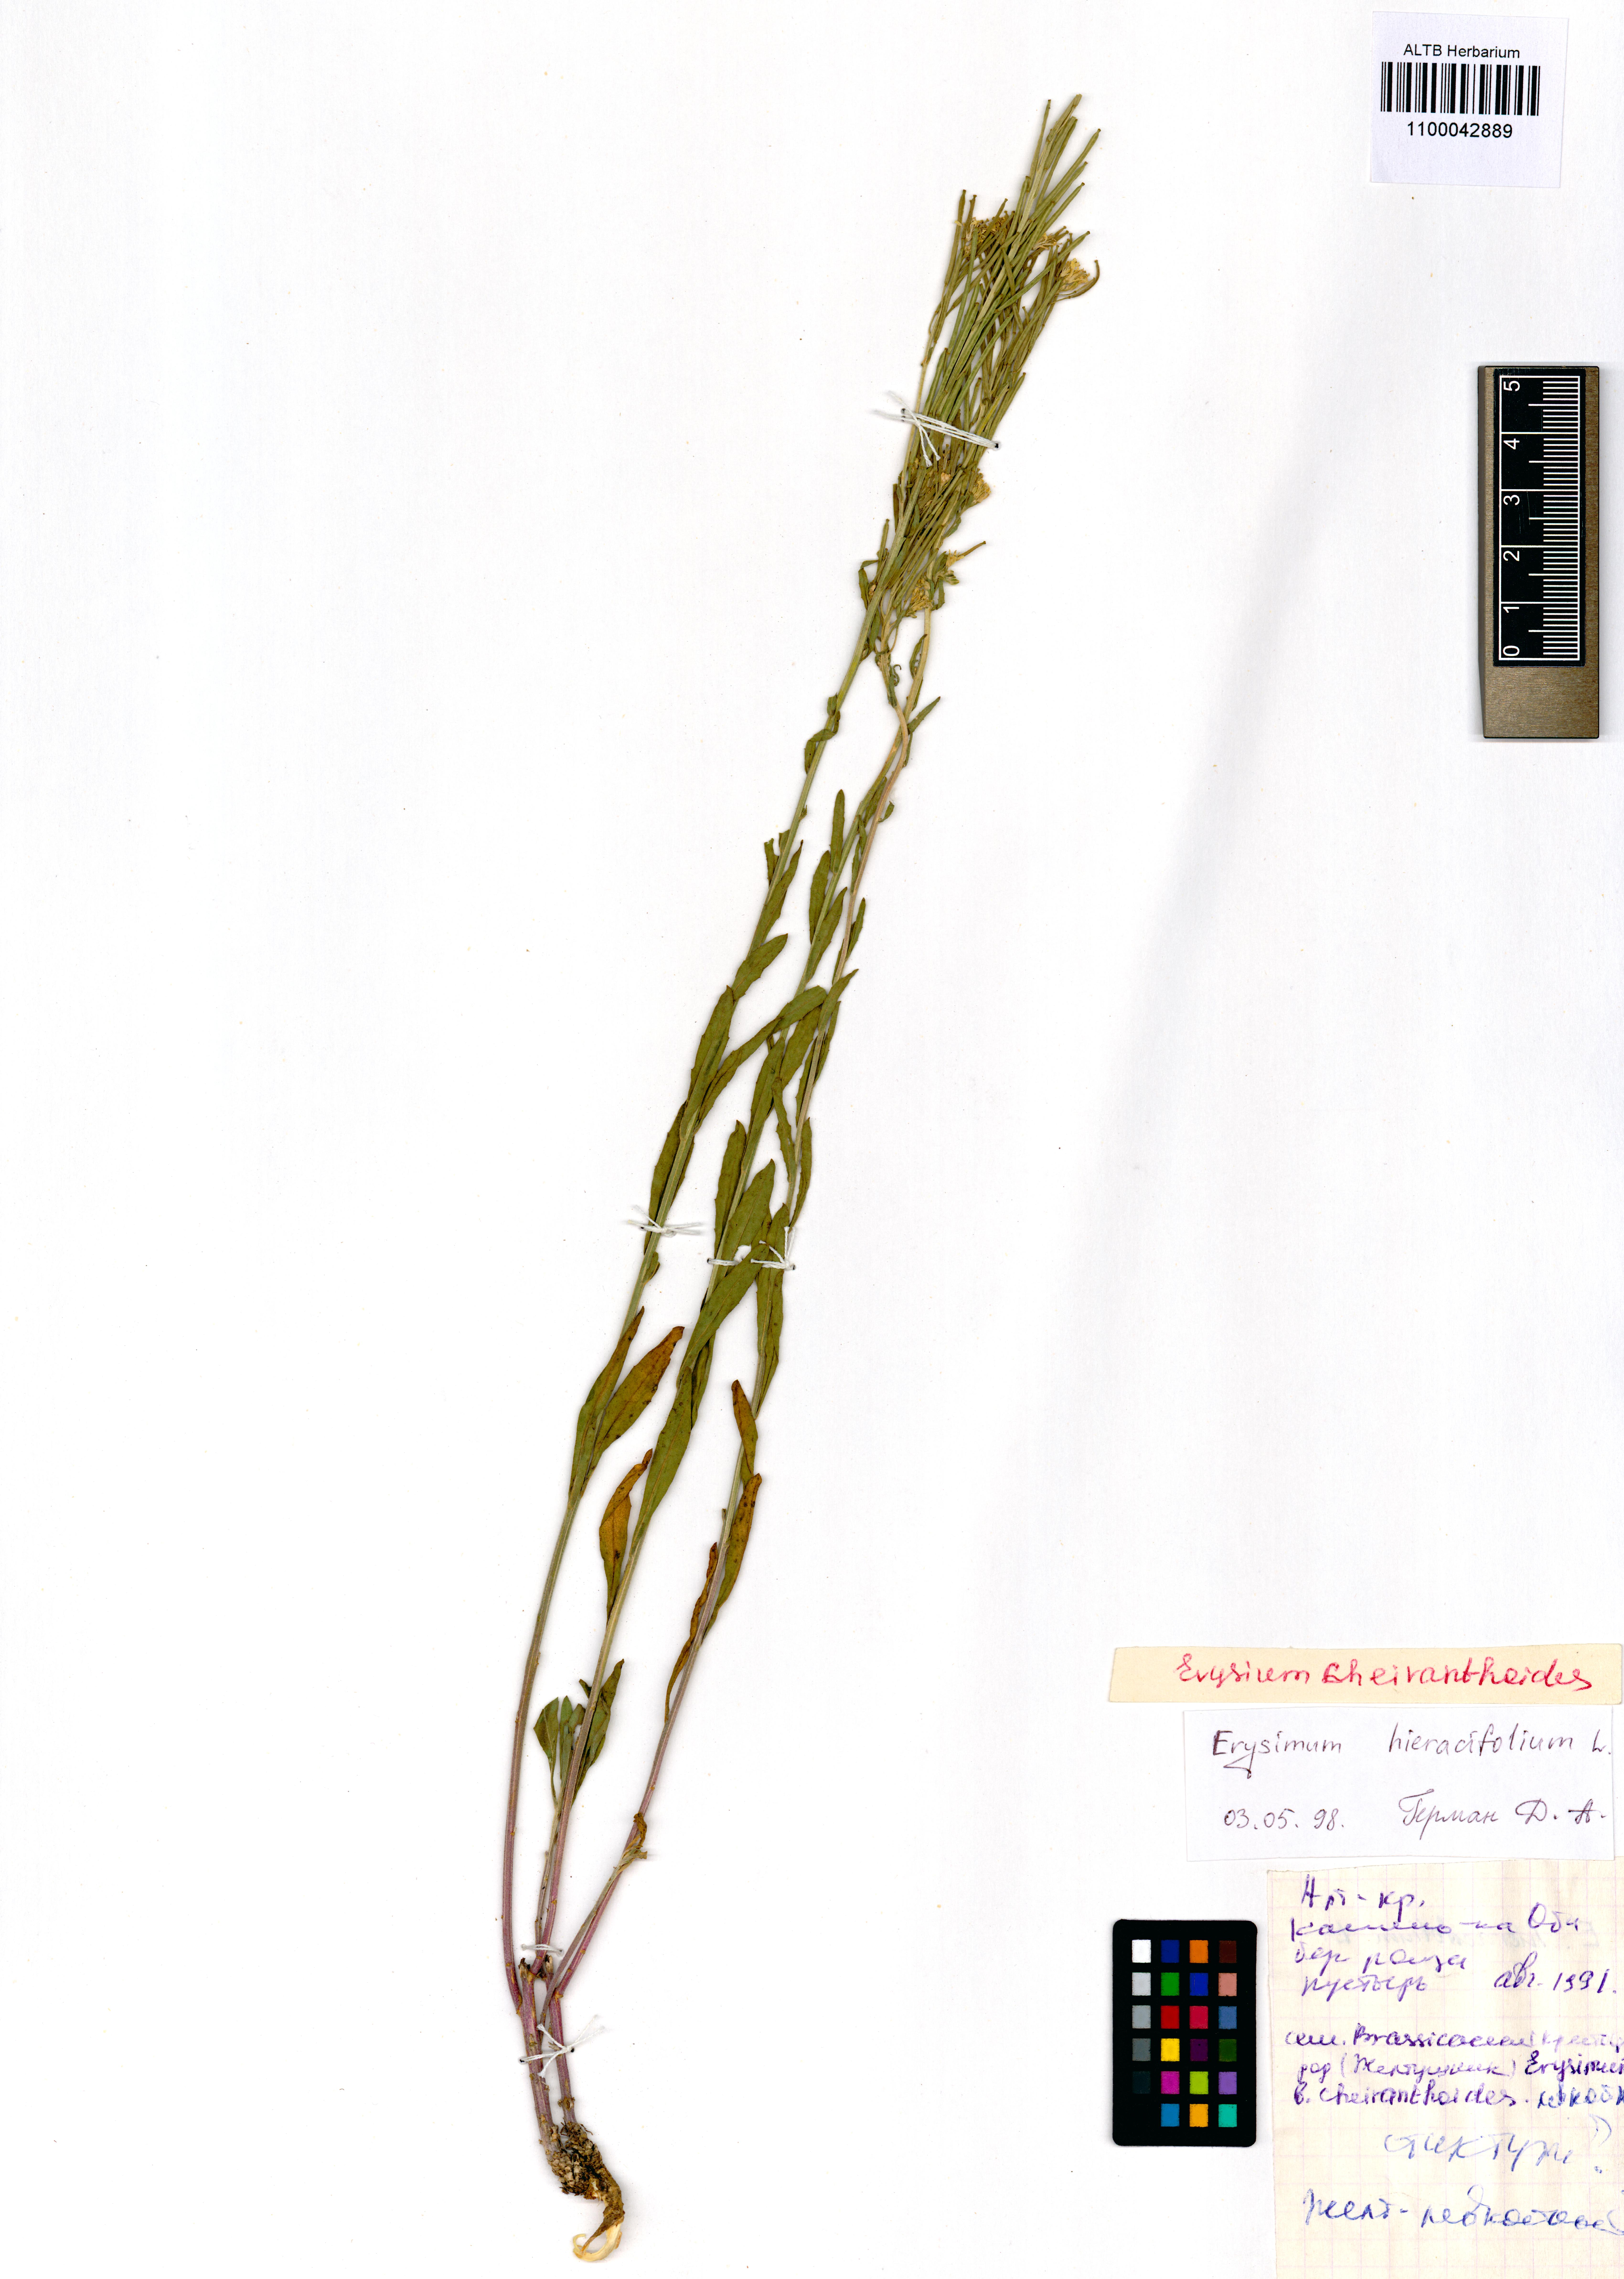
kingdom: Plantae
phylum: Tracheophyta
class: Magnoliopsida
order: Brassicales
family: Brassicaceae
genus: Erysimum
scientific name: Erysimum hieraciifolium
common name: European wallflower
